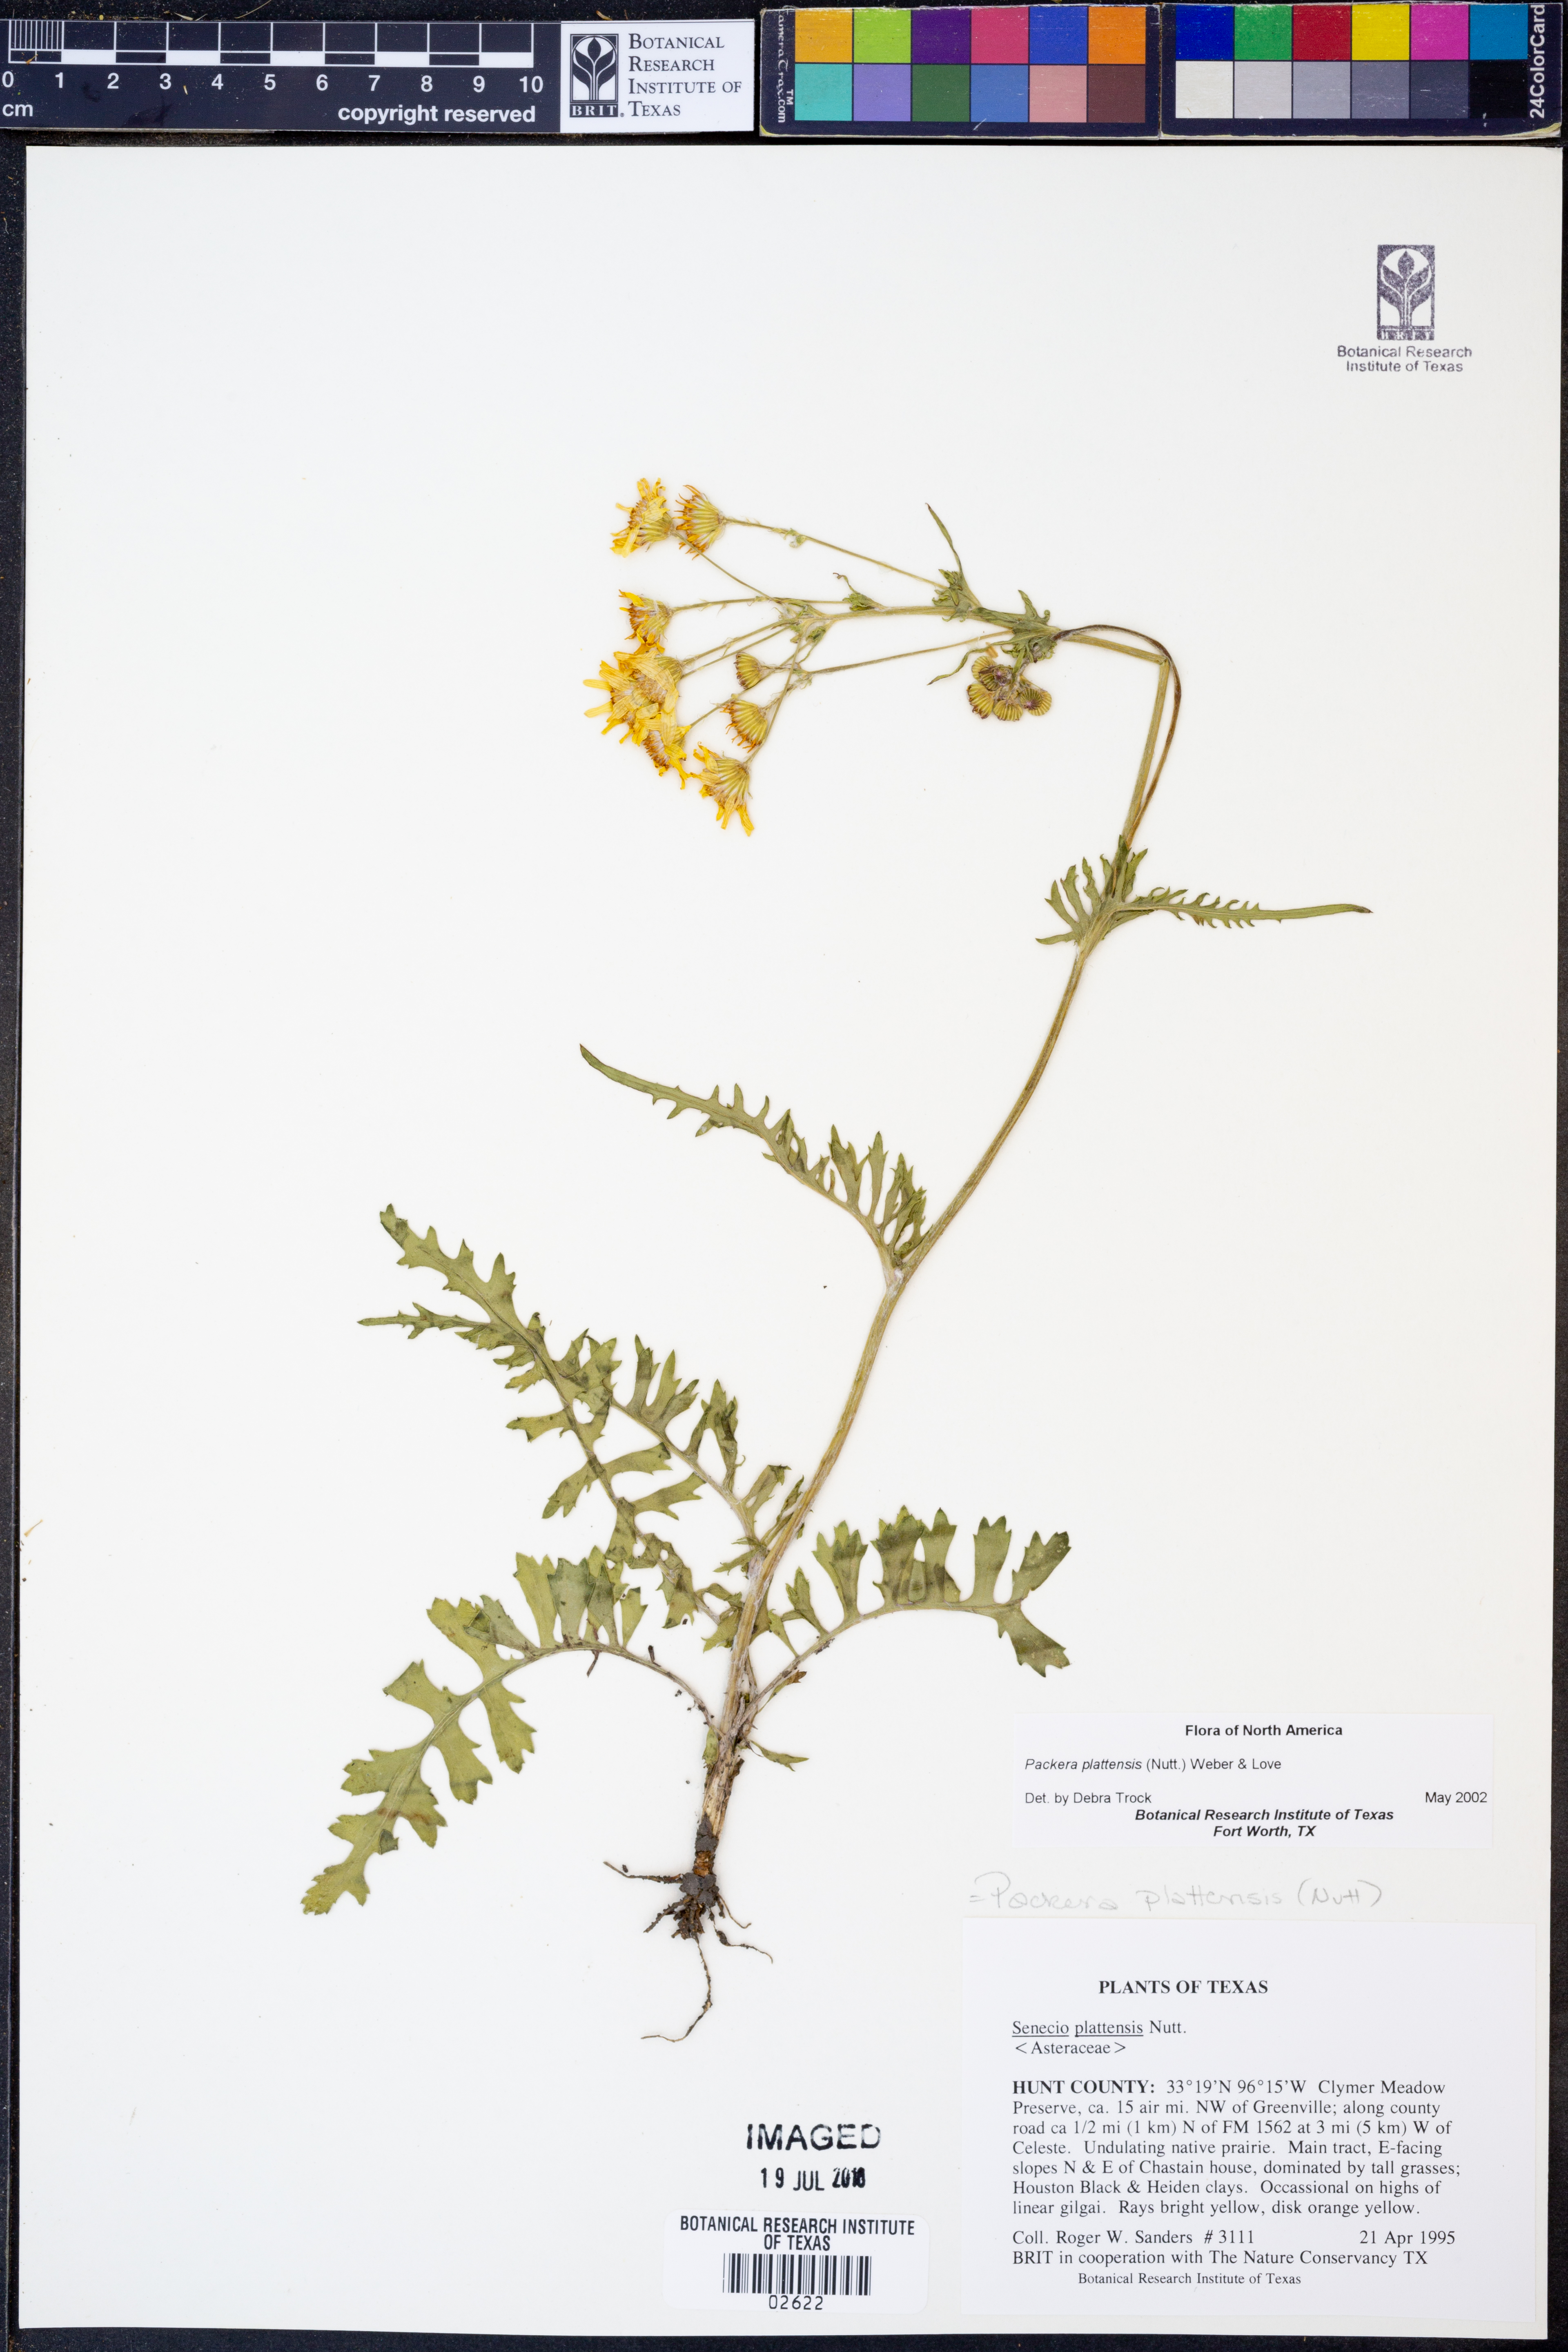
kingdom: Plantae
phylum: Tracheophyta
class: Magnoliopsida
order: Asterales
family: Asteraceae
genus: Packera
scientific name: Packera plattensis
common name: Prairie groundsel
